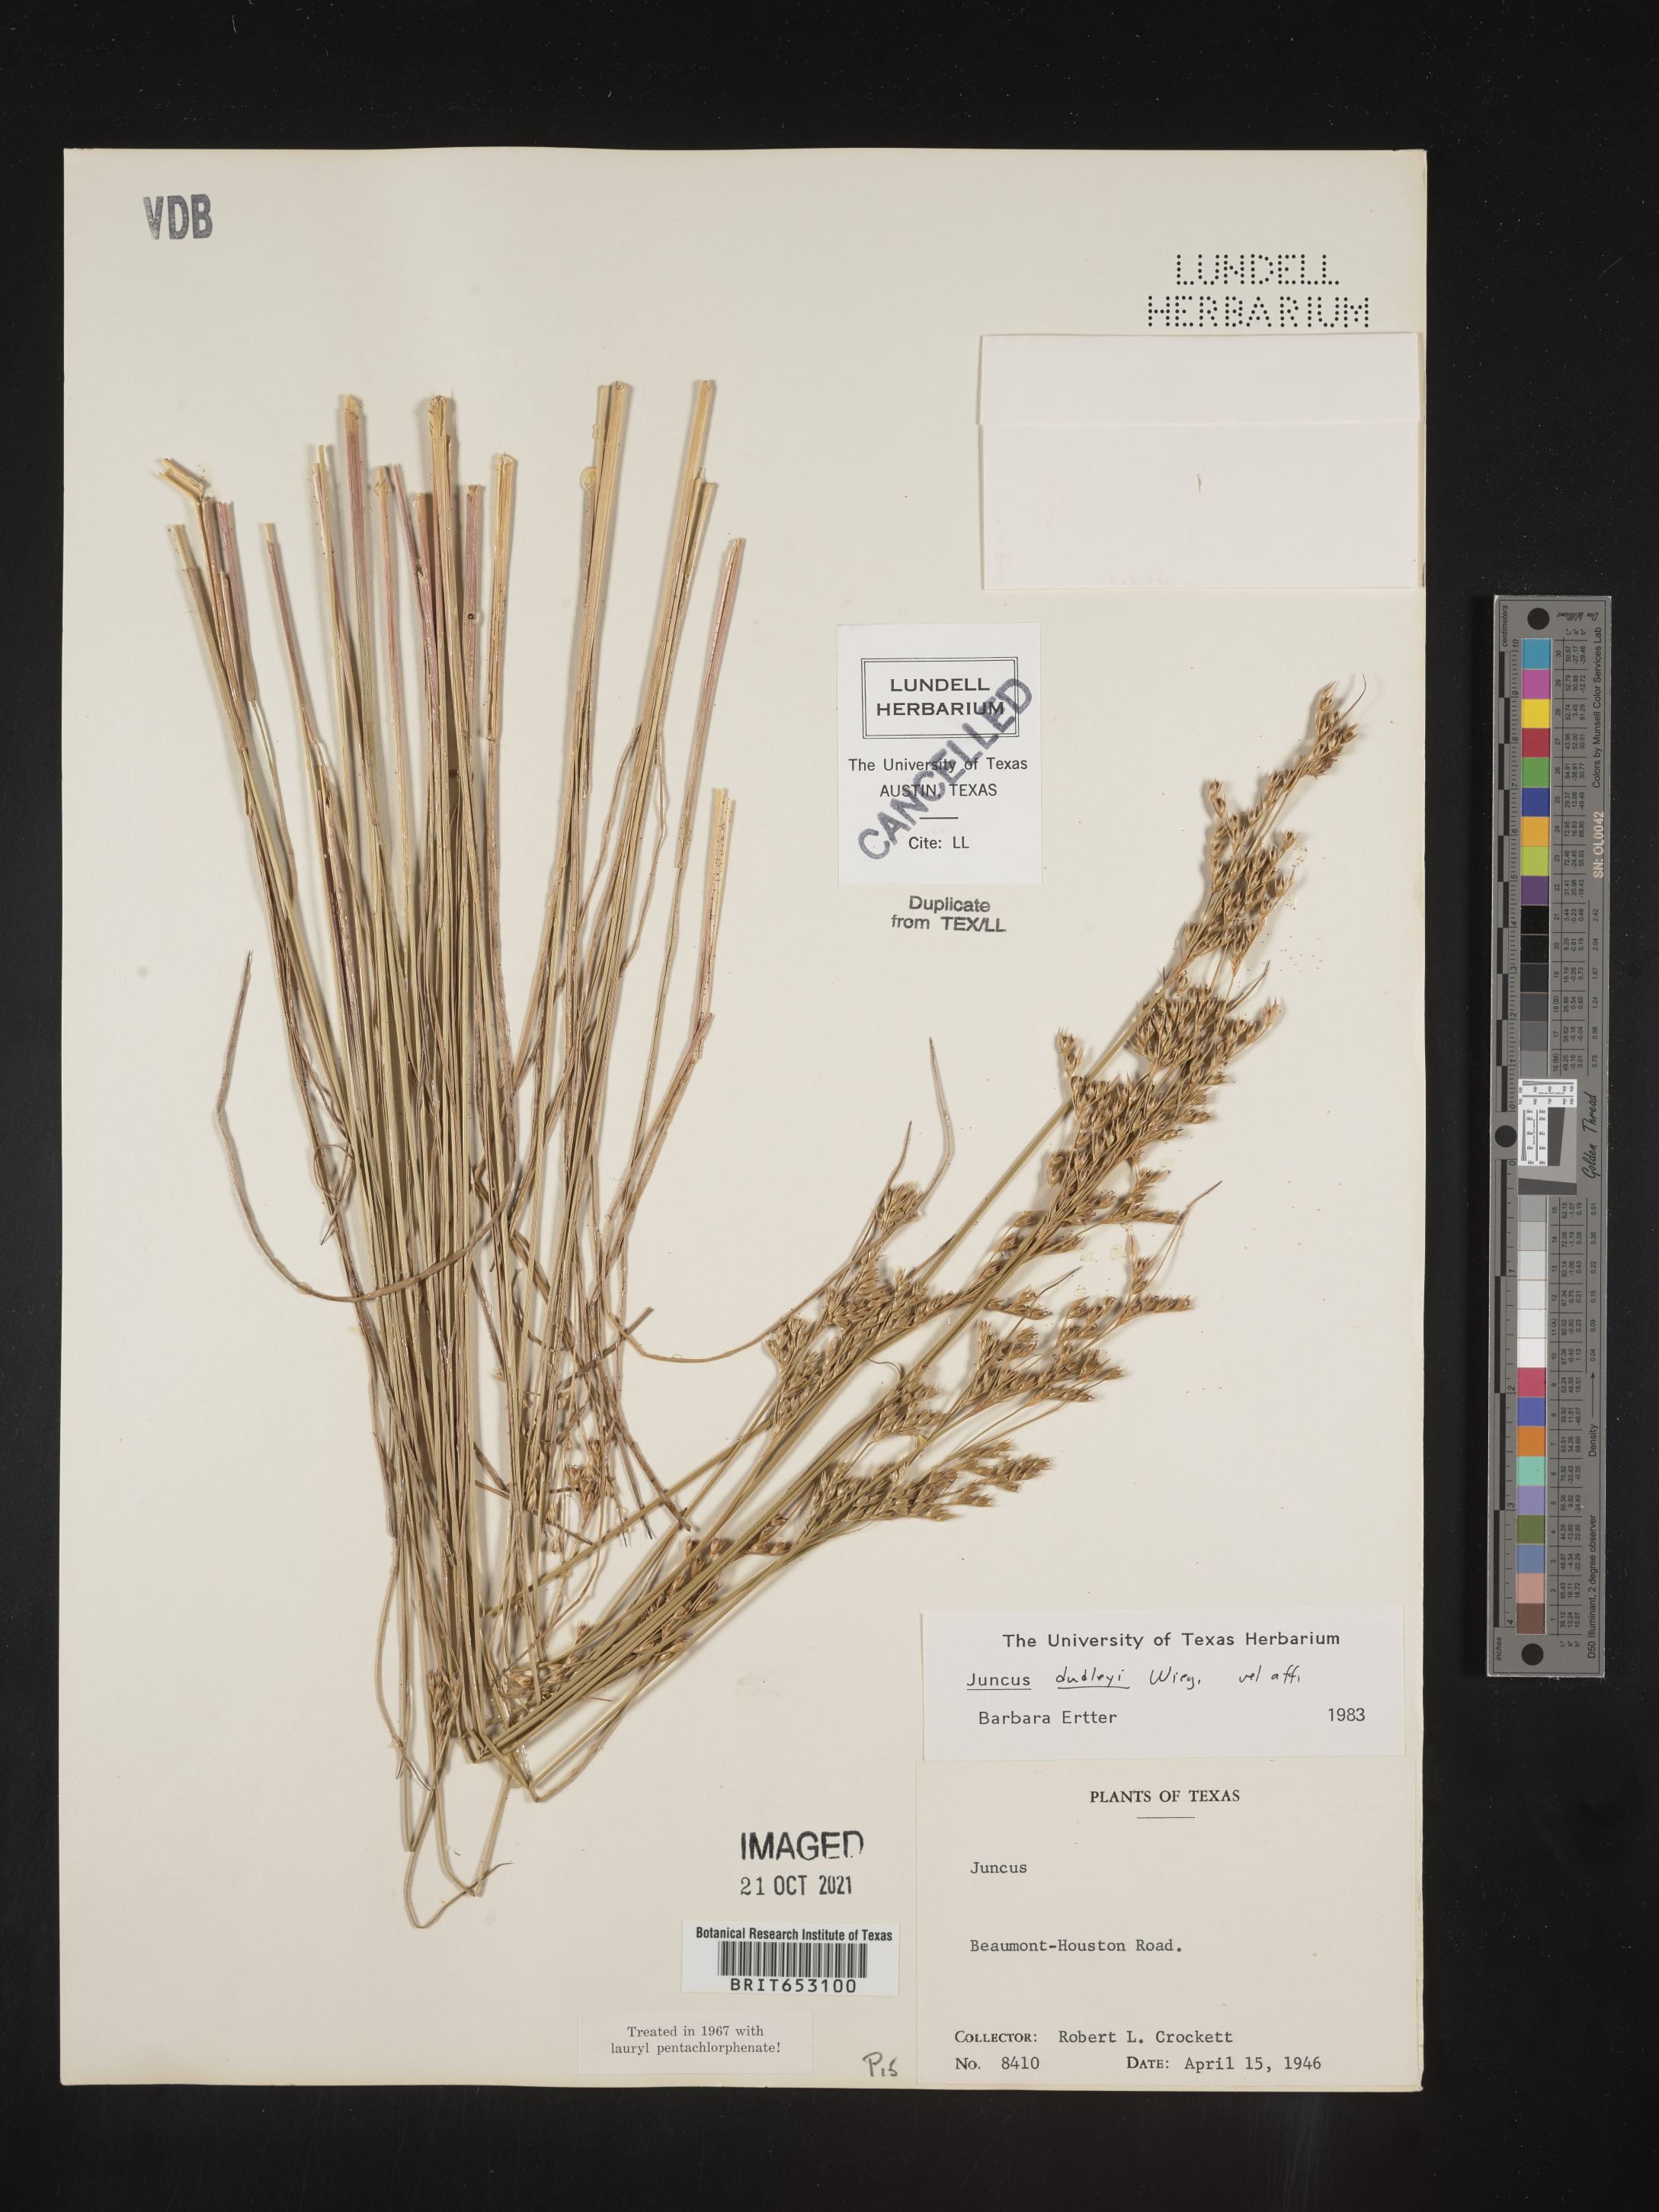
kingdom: Plantae
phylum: Tracheophyta
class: Liliopsida
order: Poales
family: Juncaceae
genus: Juncus
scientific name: Juncus dudleyi
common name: Dudley's rush
